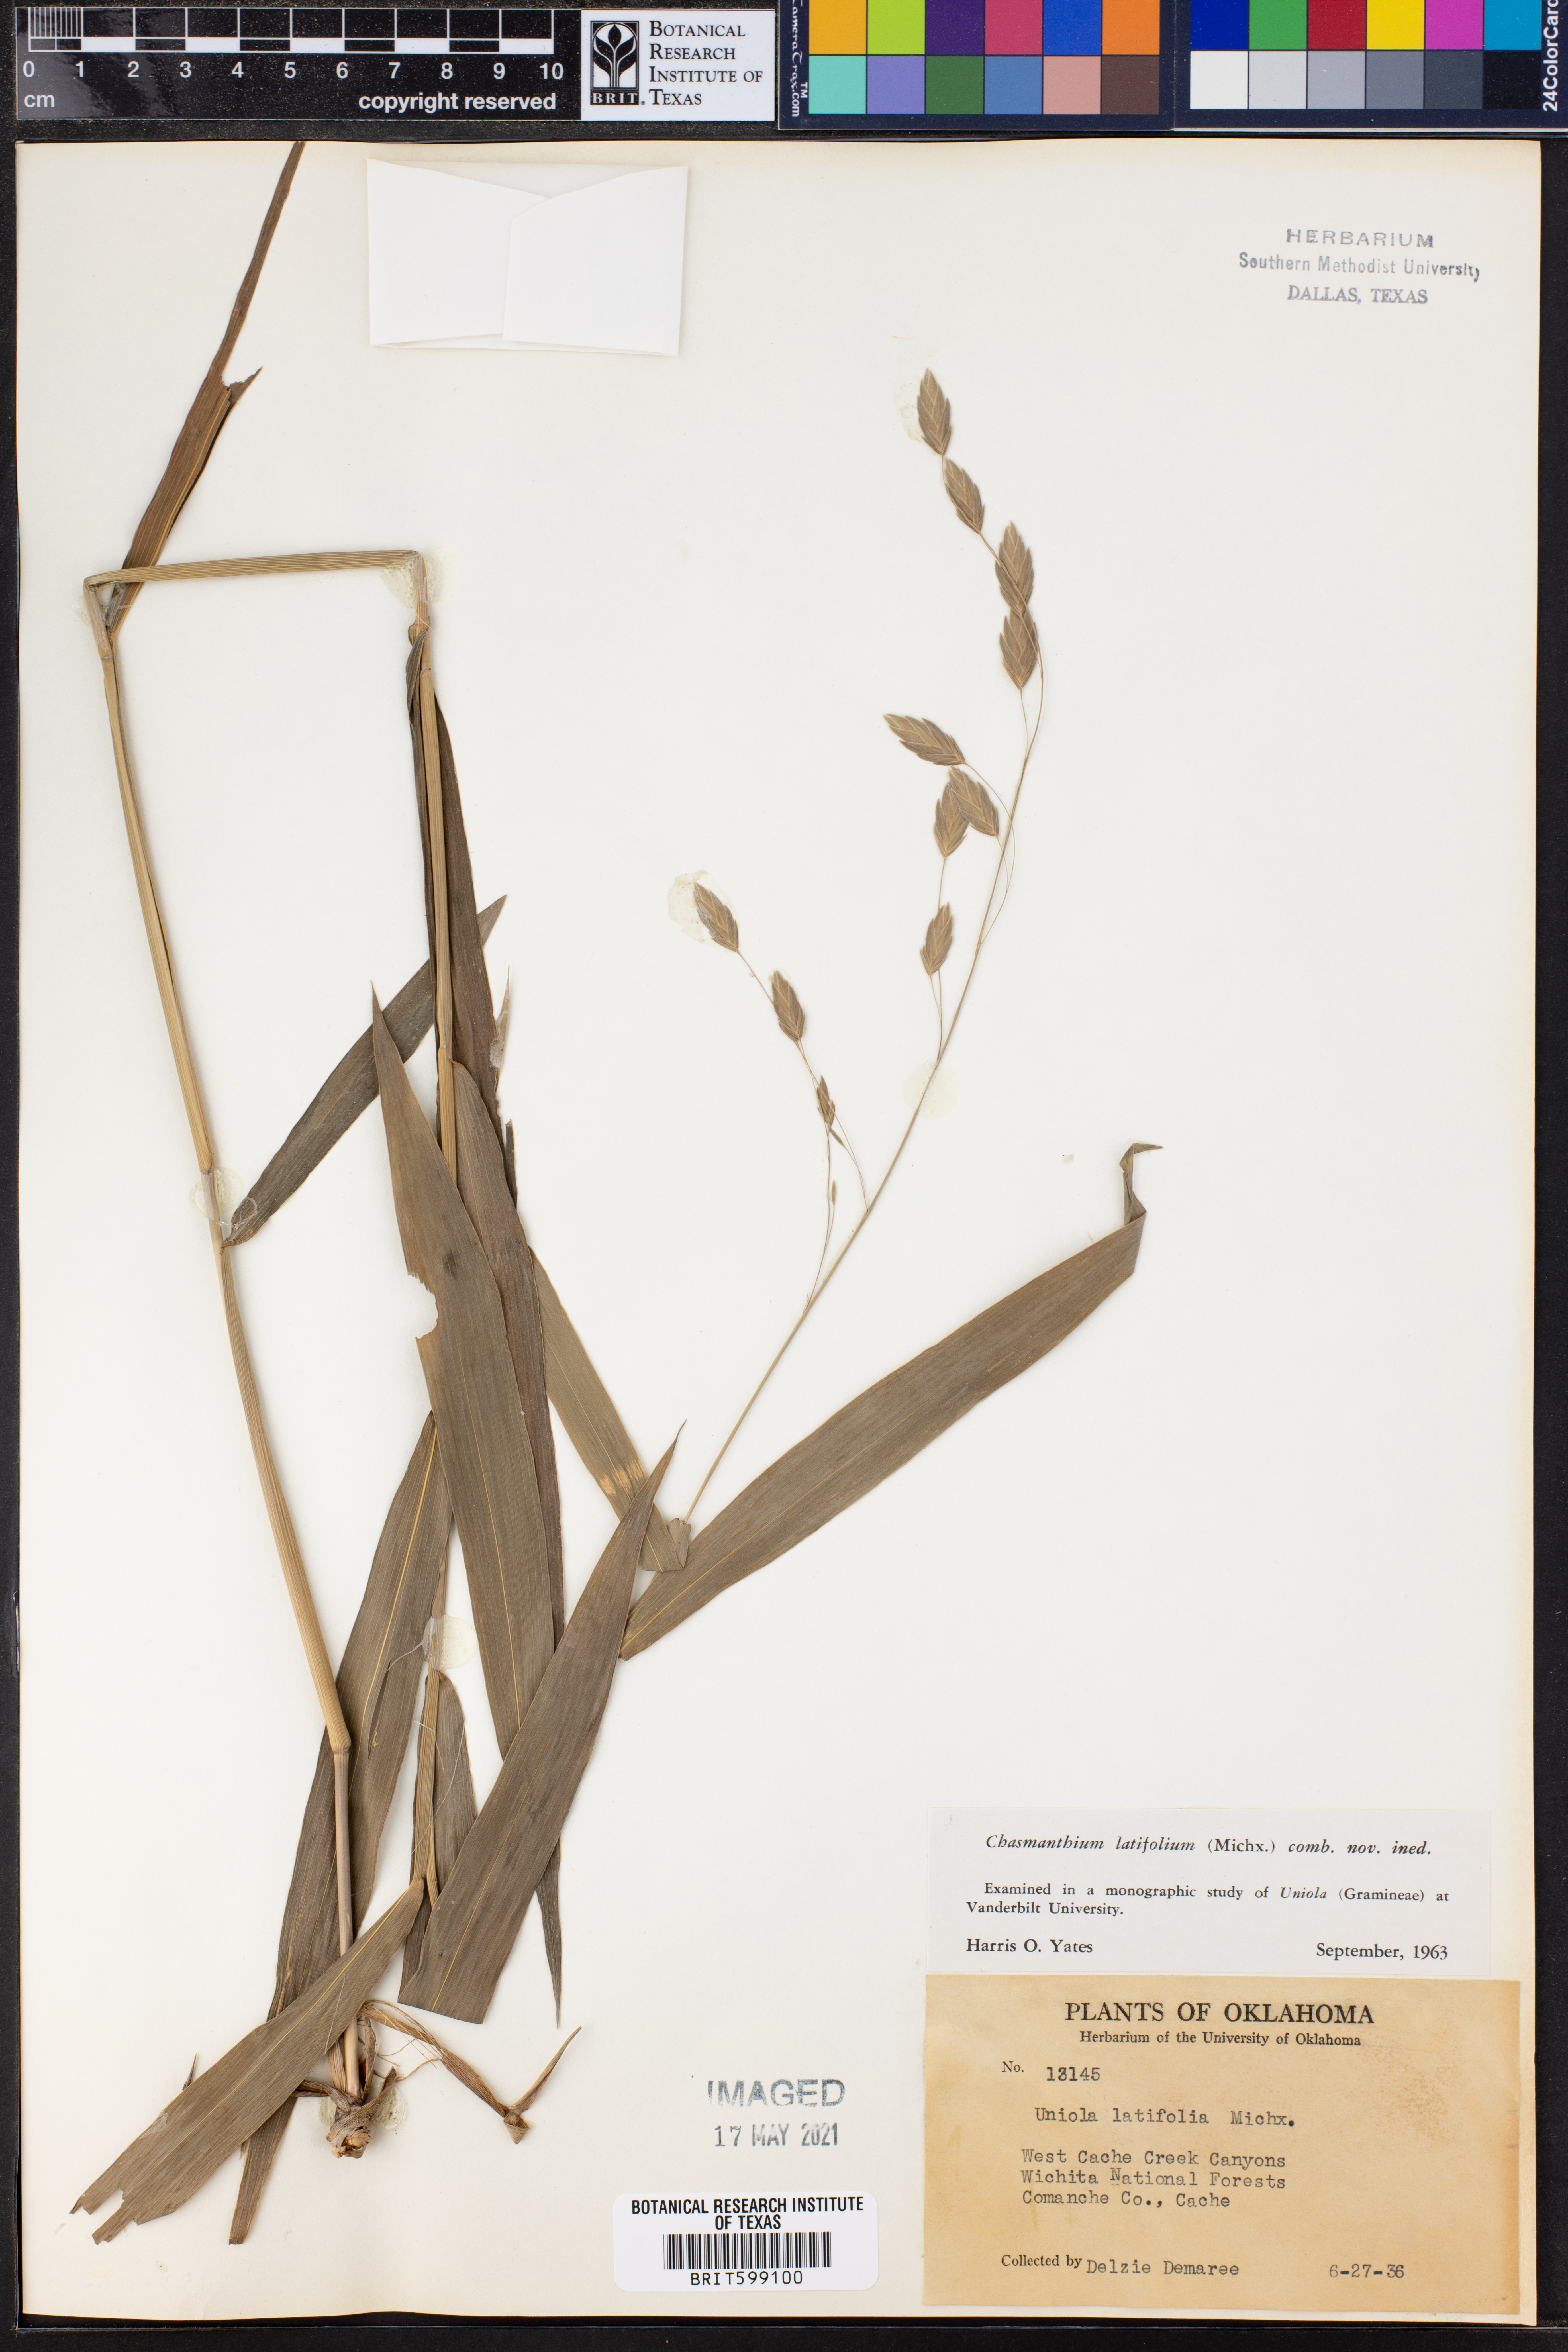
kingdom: Plantae
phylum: Tracheophyta
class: Liliopsida
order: Poales
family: Poaceae
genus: Chasmanthium
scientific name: Chasmanthium latifolium
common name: Broad-leaved chasmanthium
